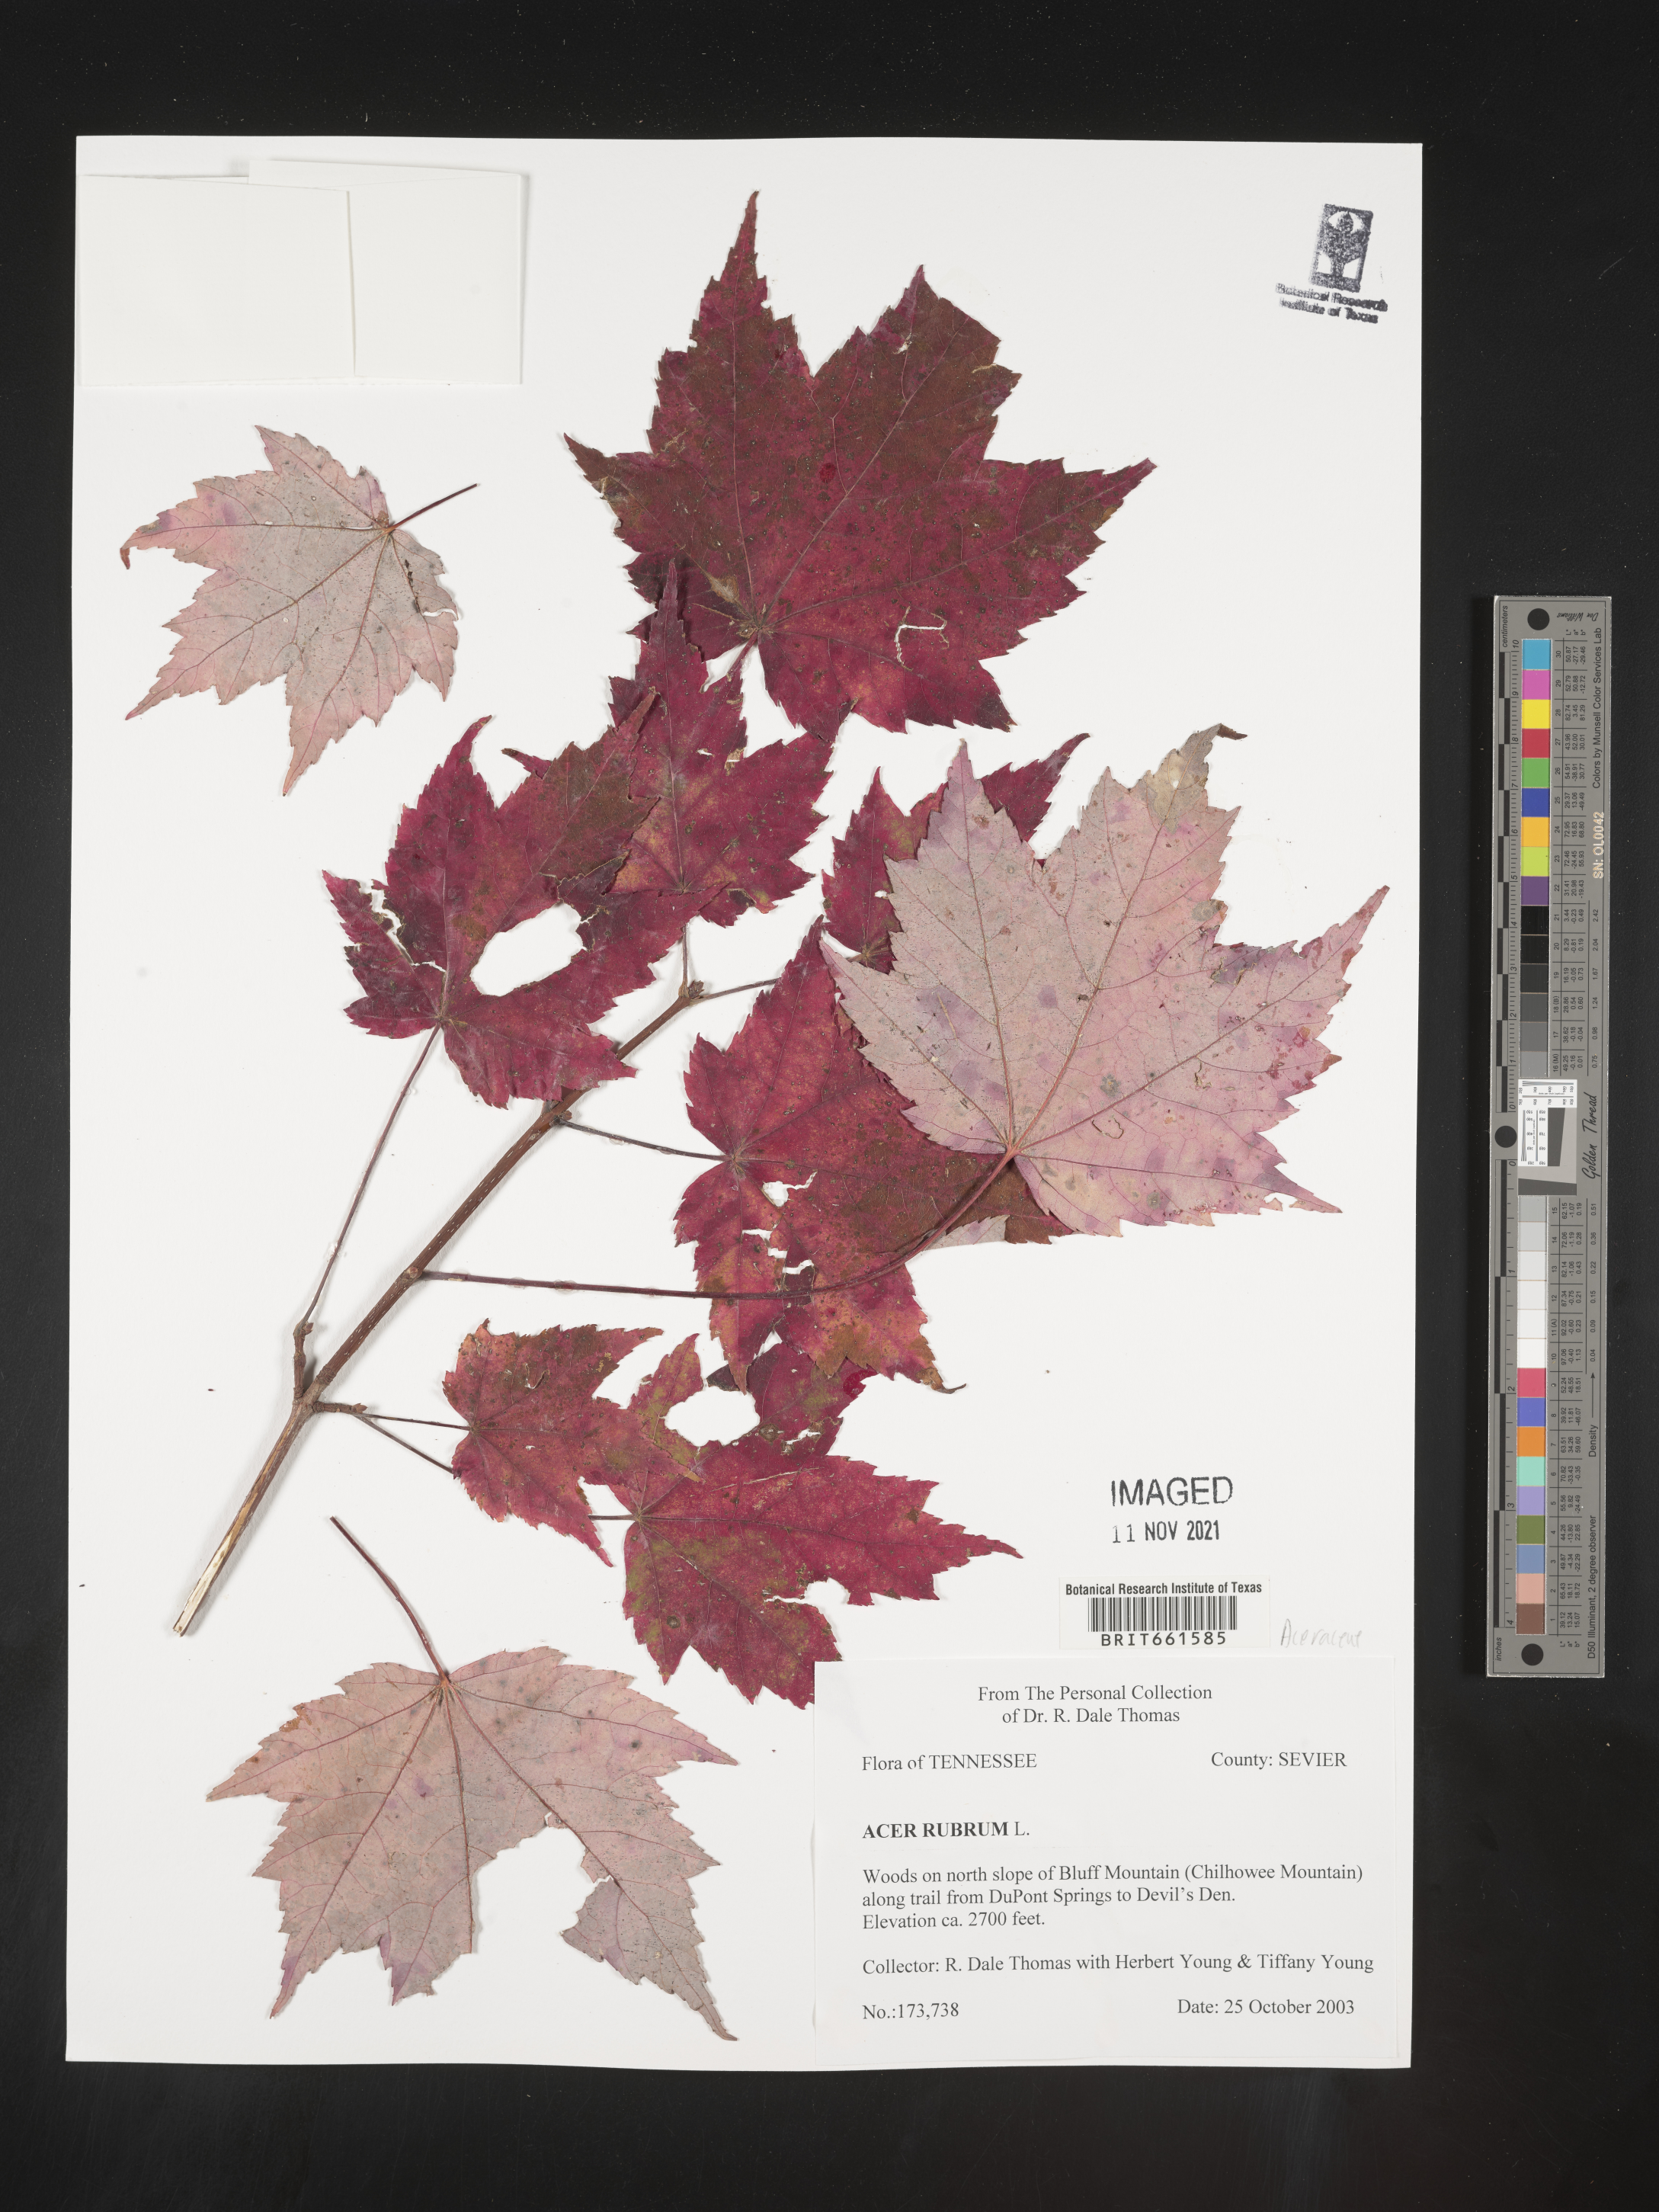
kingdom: Plantae
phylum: Tracheophyta
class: Magnoliopsida
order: Sapindales
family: Sapindaceae
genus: Acer
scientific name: Acer rubrum
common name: Red maple
